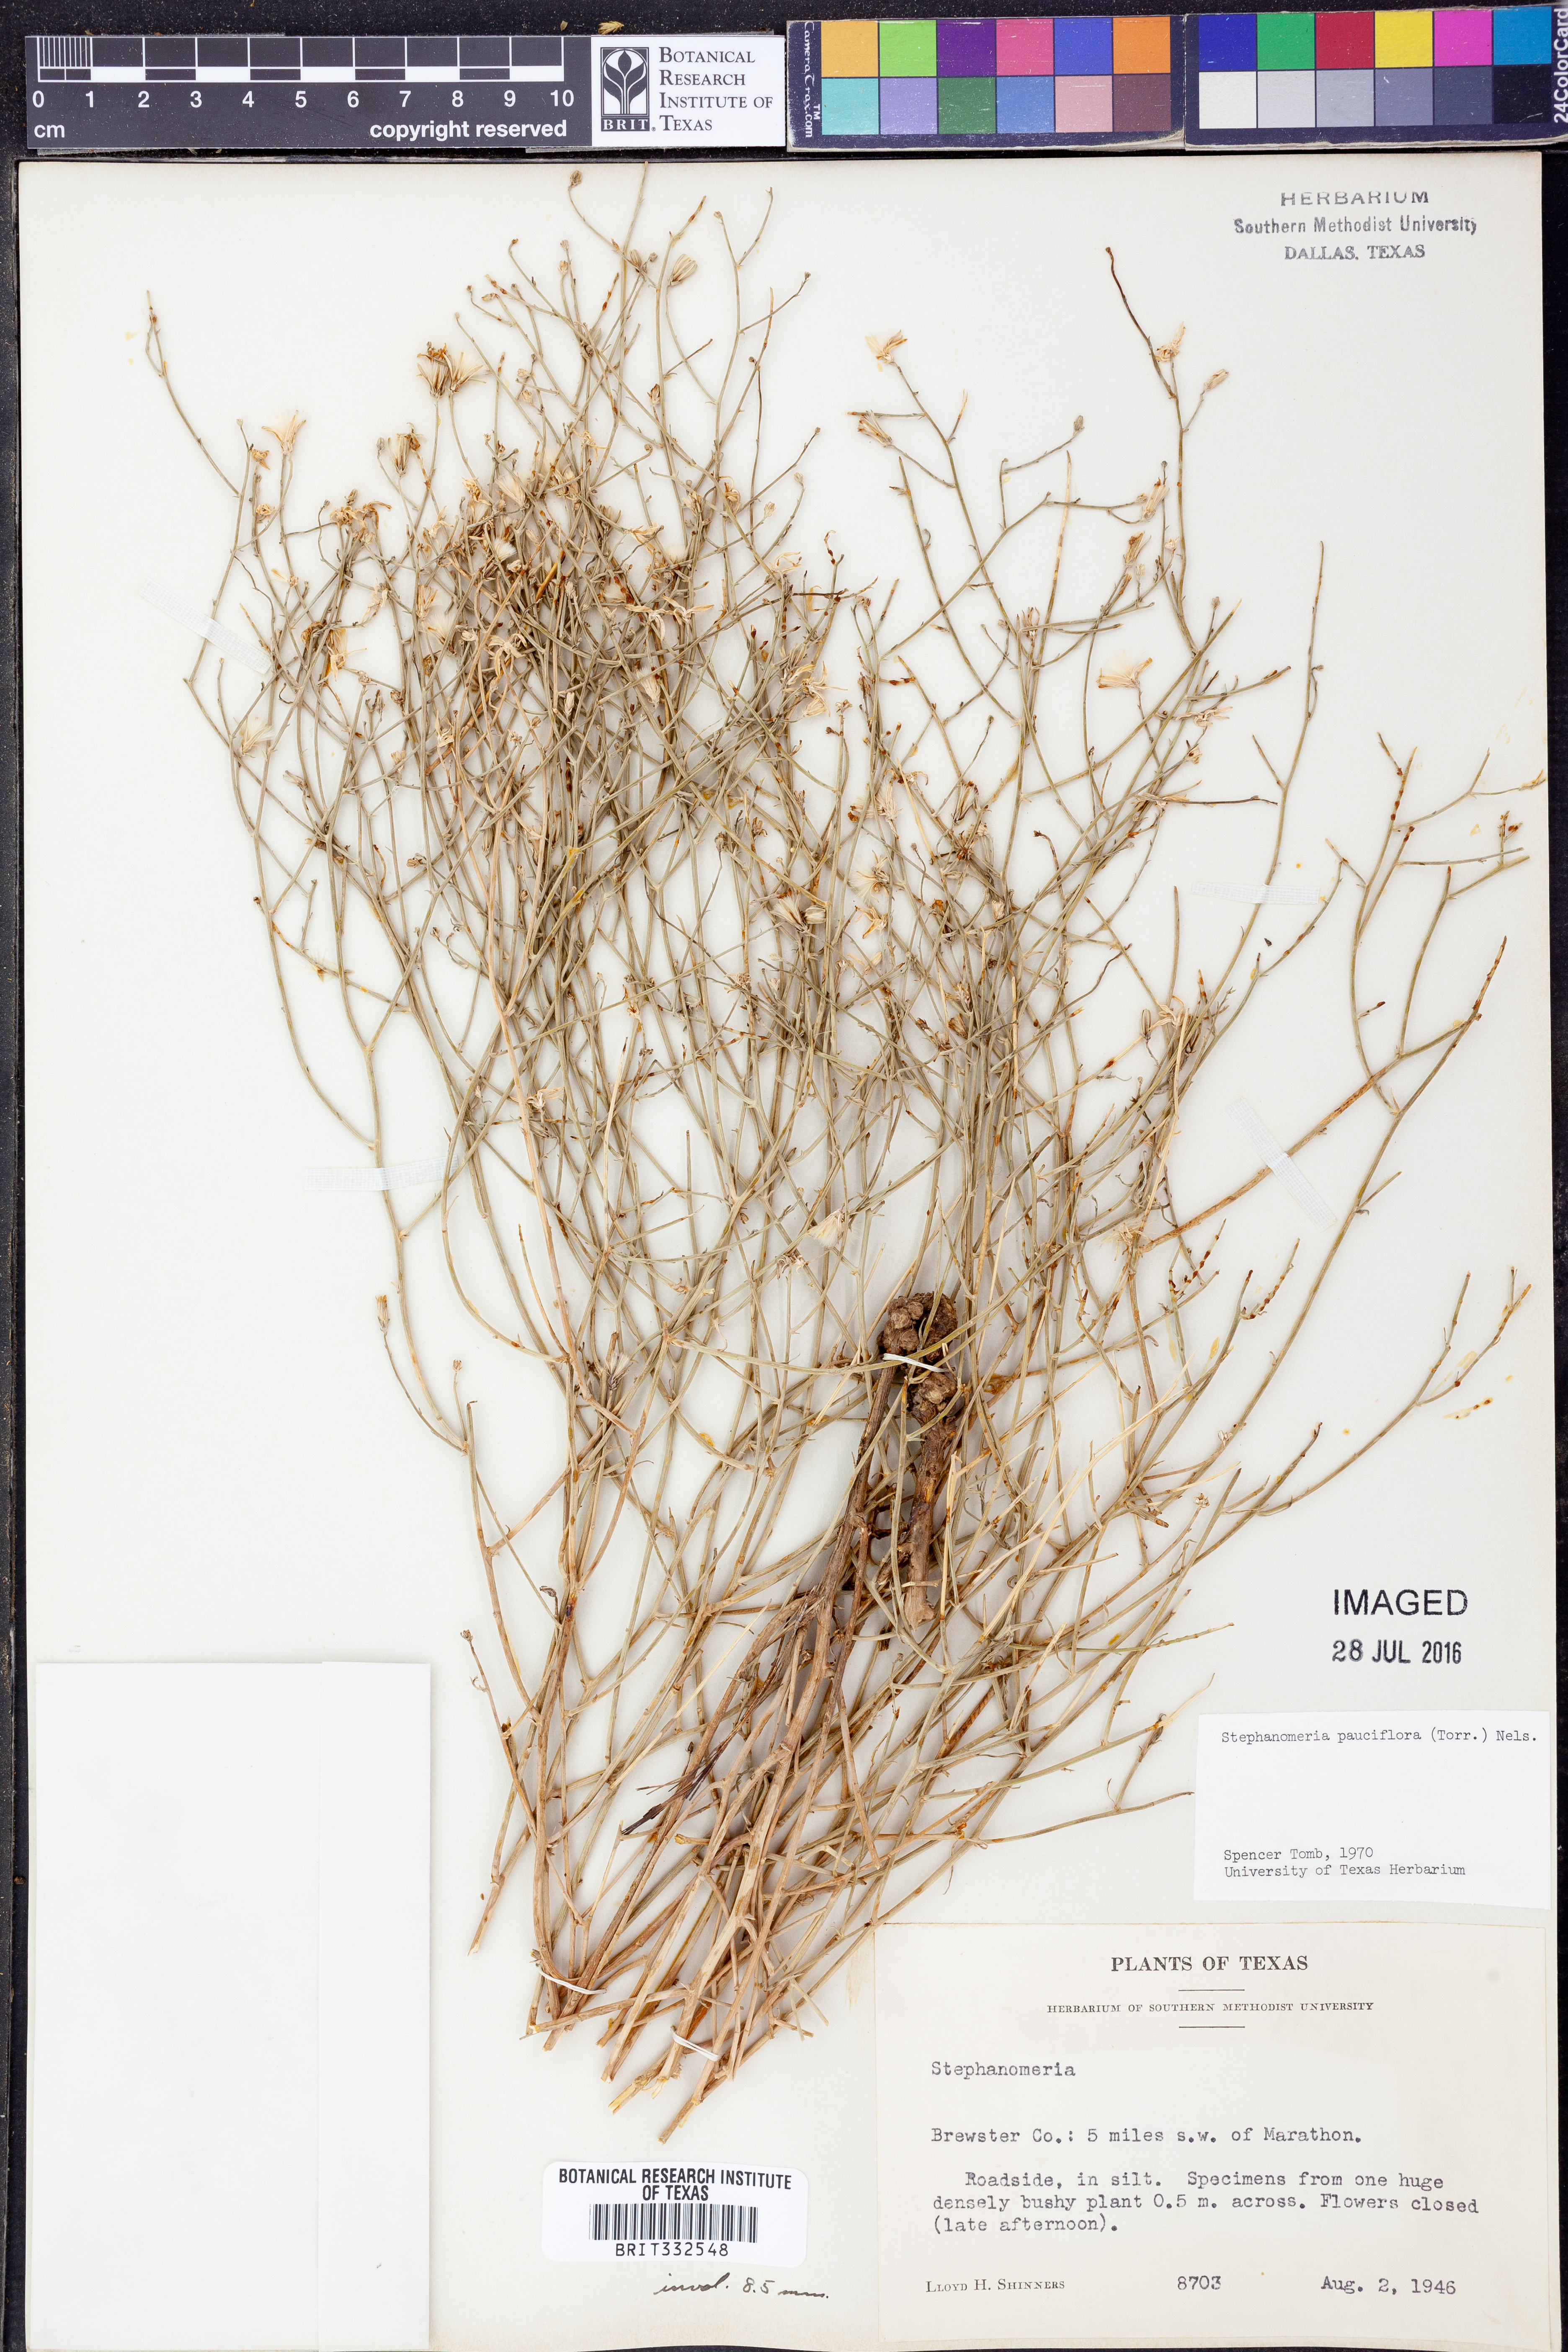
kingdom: Plantae
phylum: Tracheophyta
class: Magnoliopsida
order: Asterales
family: Asteraceae
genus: Stephanomeria
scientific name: Stephanomeria pauciflora
